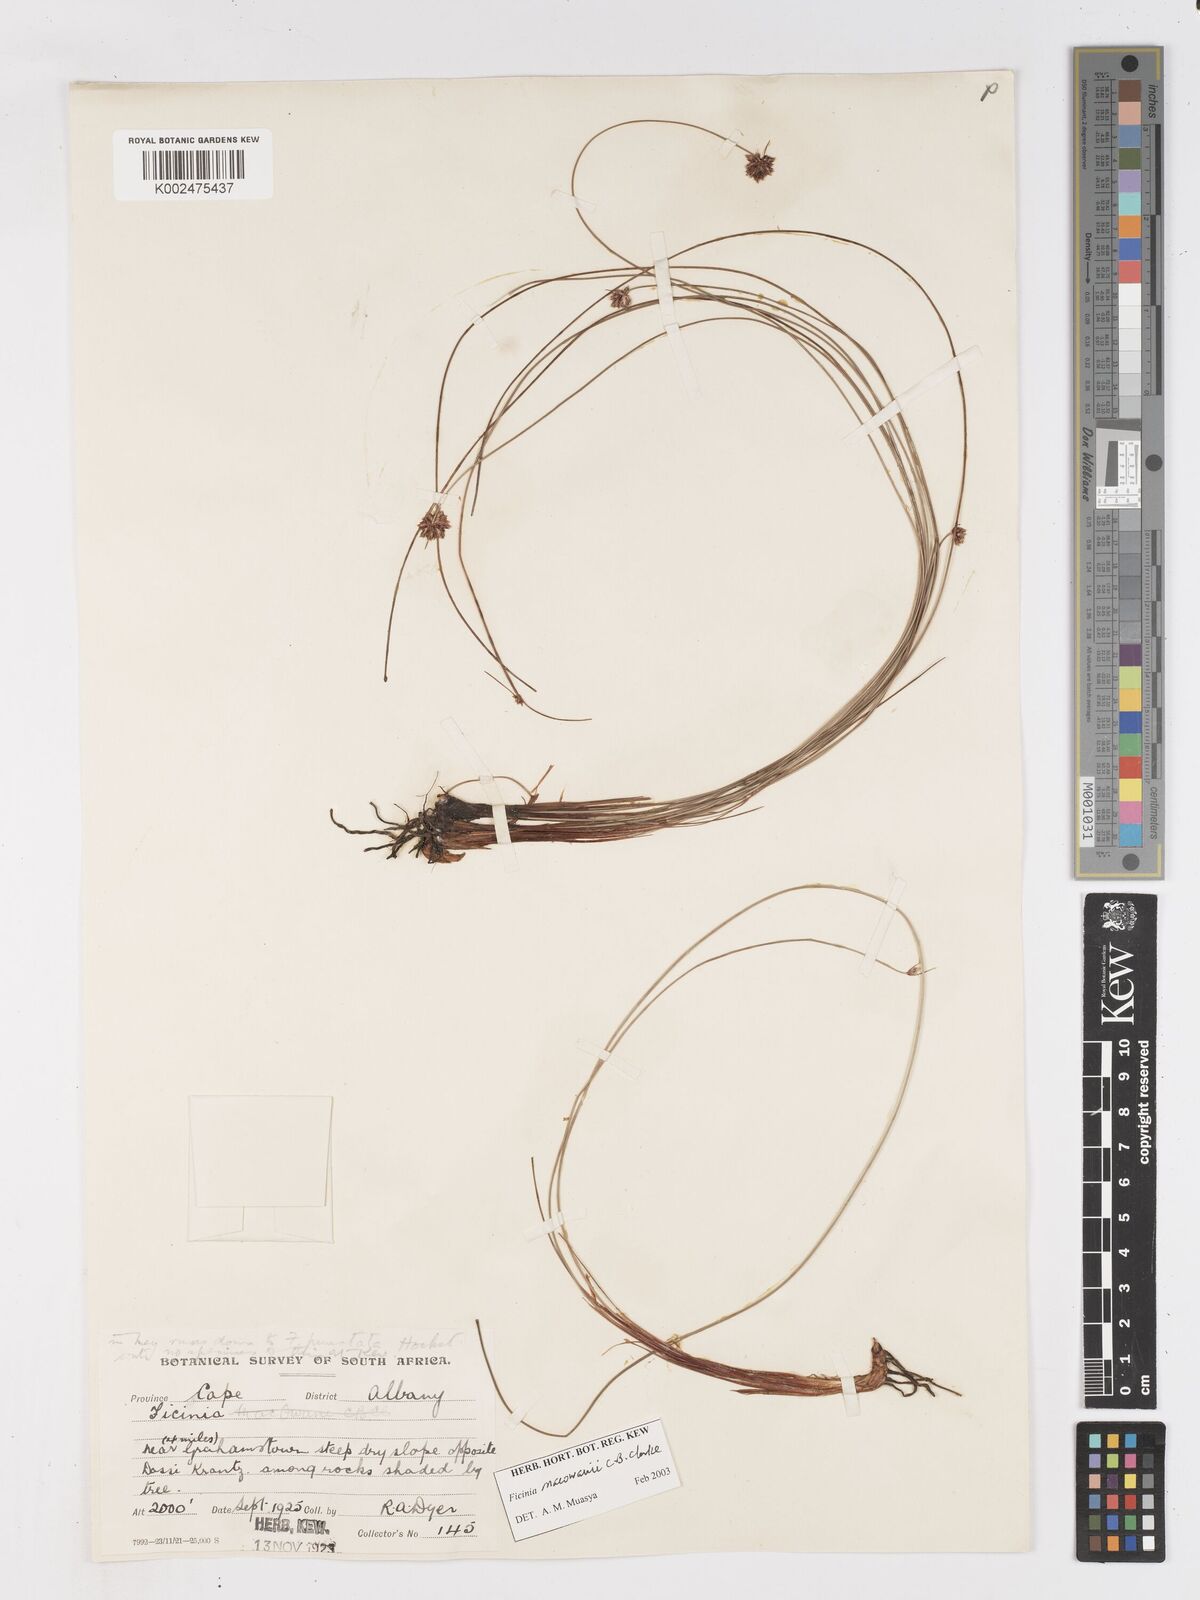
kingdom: Plantae
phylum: Tracheophyta
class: Liliopsida
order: Poales
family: Cyperaceae
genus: Ficinia
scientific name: Ficinia acuminata
